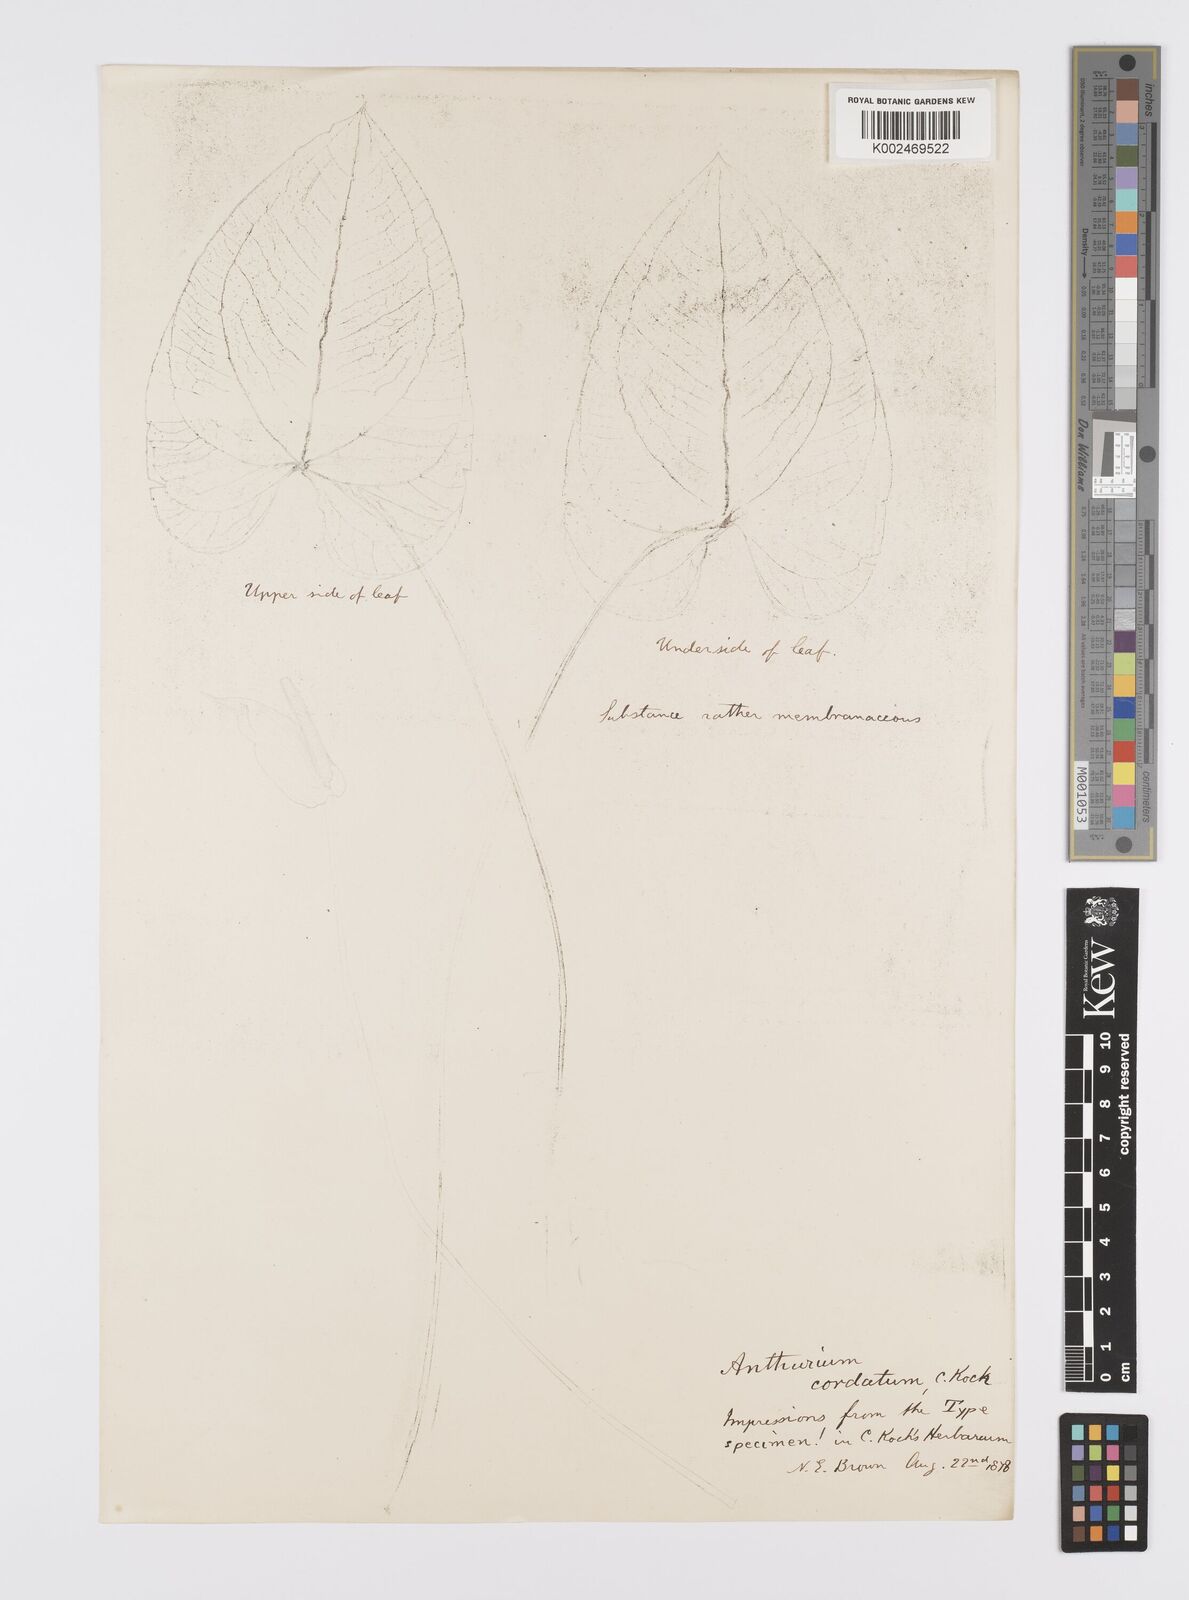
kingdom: Plantae
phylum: Tracheophyta
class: Liliopsida
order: Alismatales
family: Araceae
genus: Anthurium
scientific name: Anthurium augustinum
